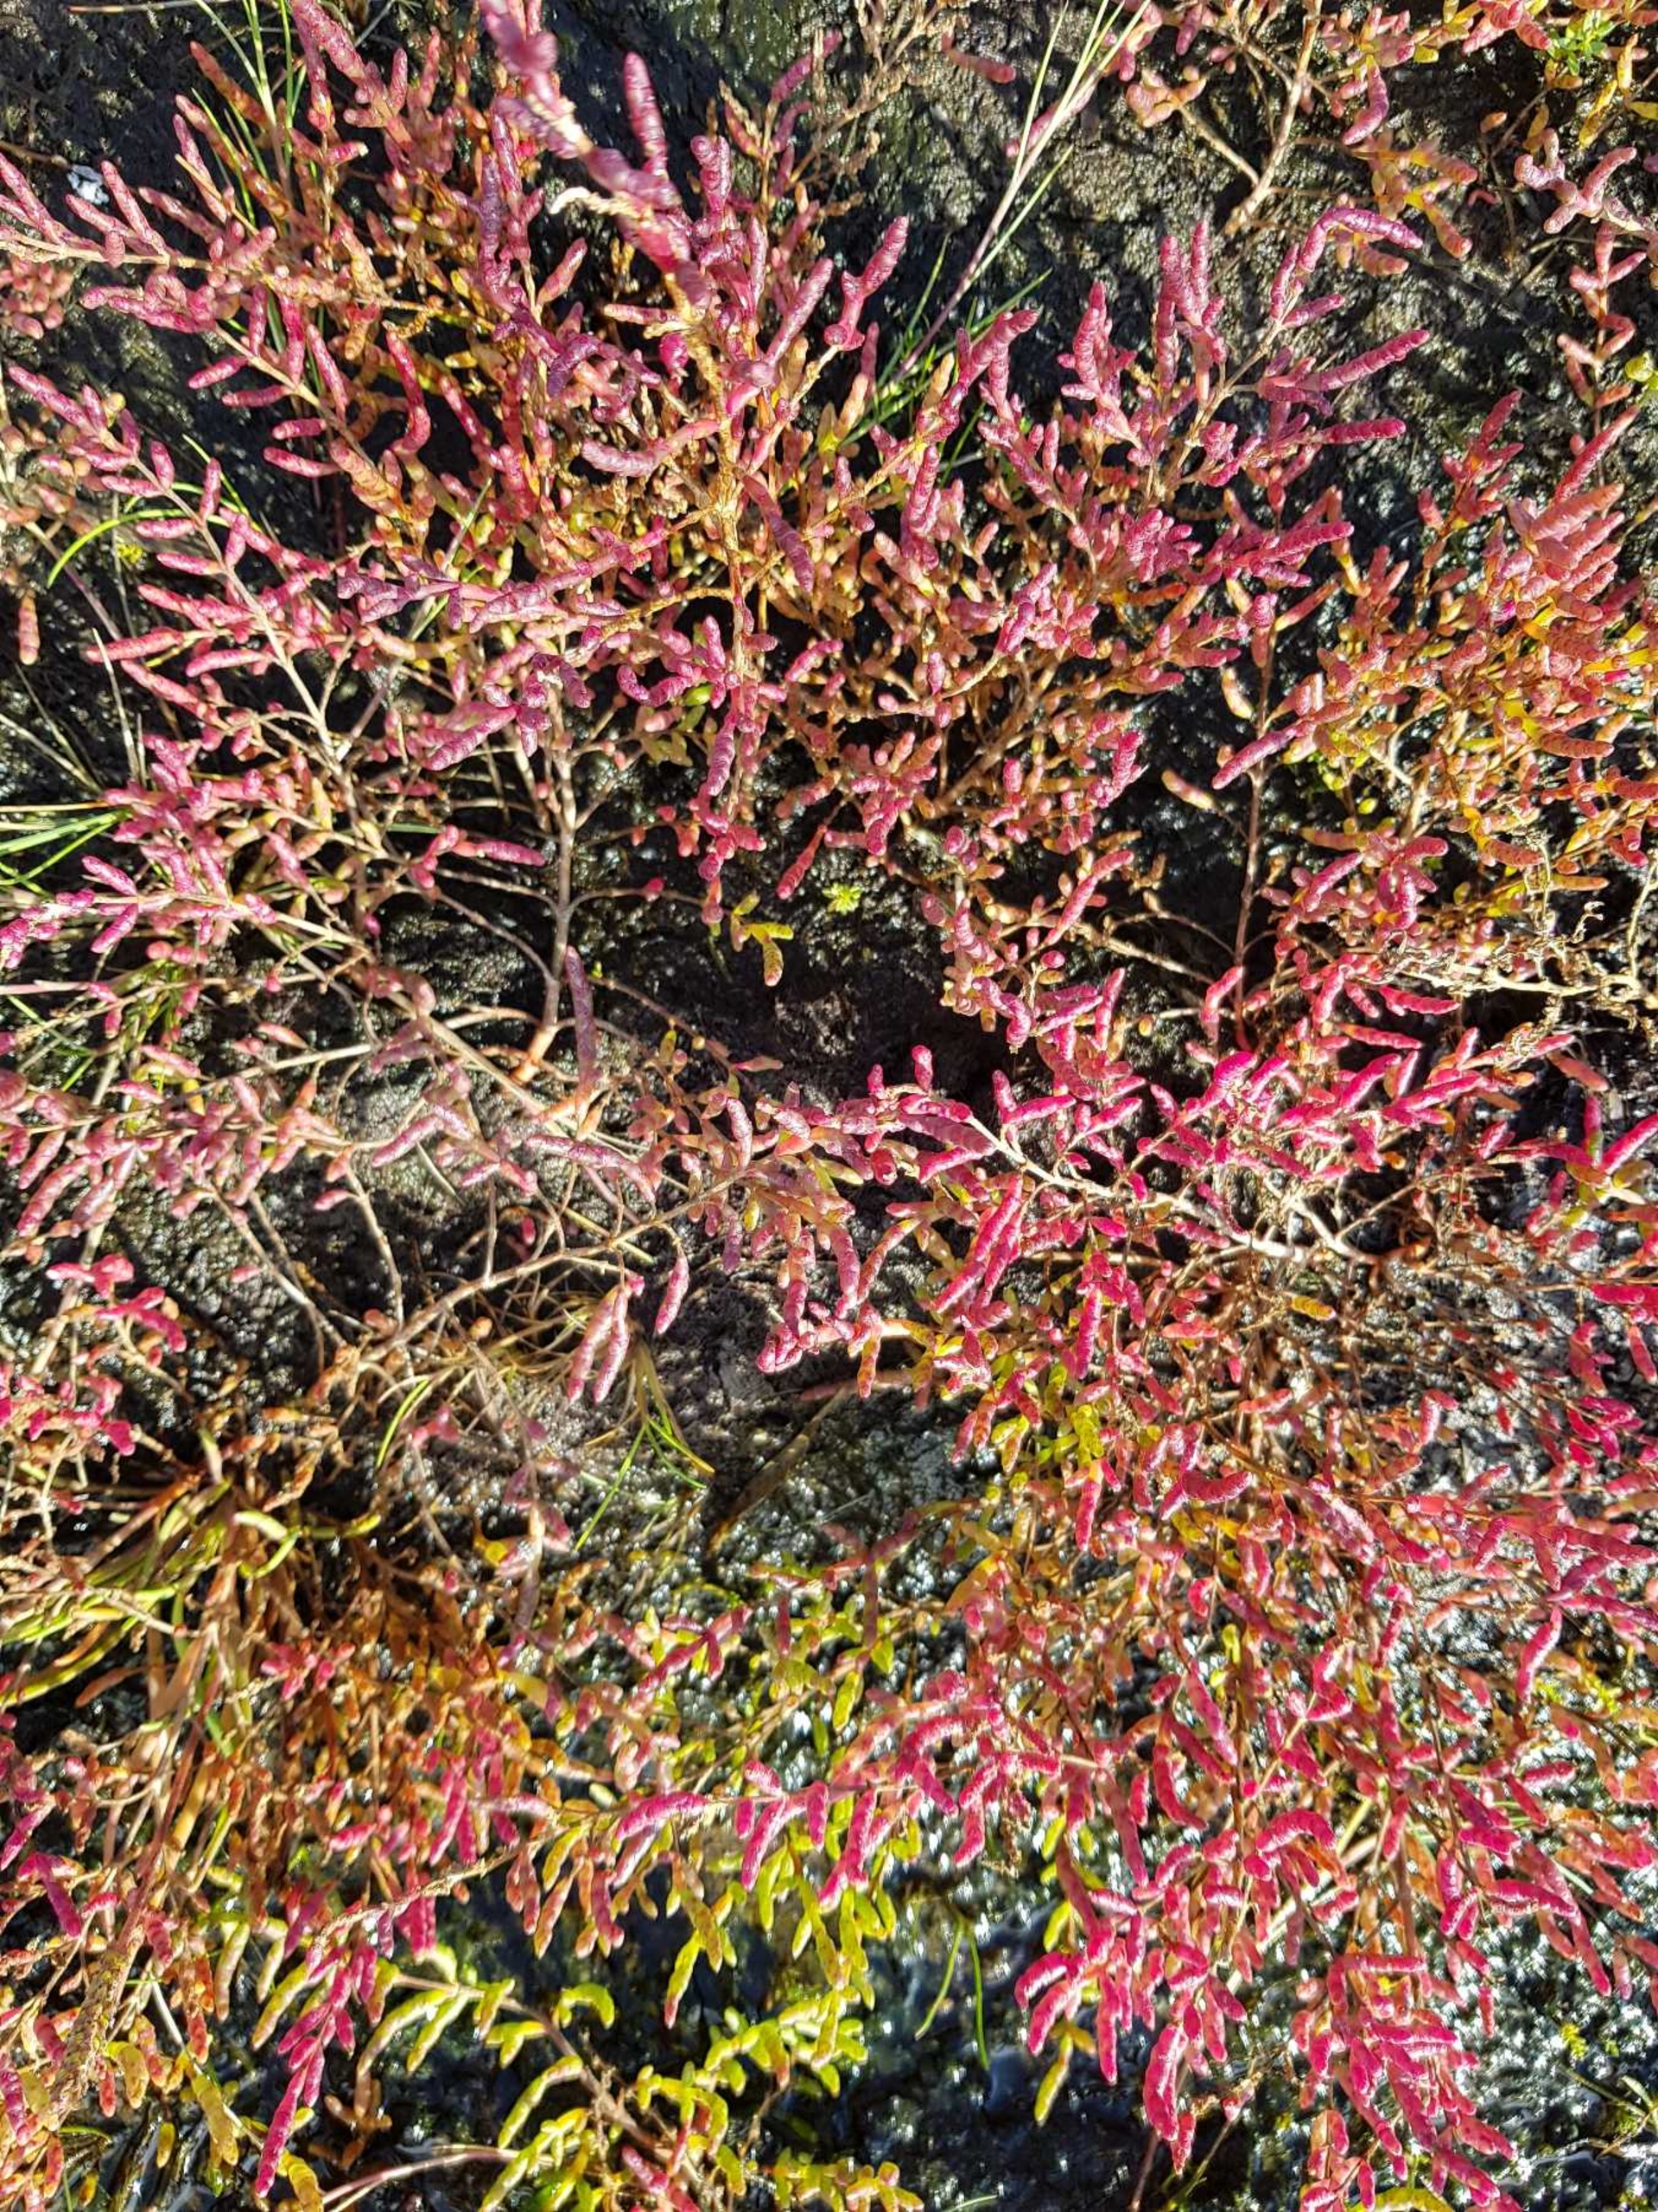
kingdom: Plantae
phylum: Tracheophyta
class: Magnoliopsida
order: Caryophyllales
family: Amaranthaceae
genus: Salicornia
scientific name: Salicornia europaea
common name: Almindelig salturt
